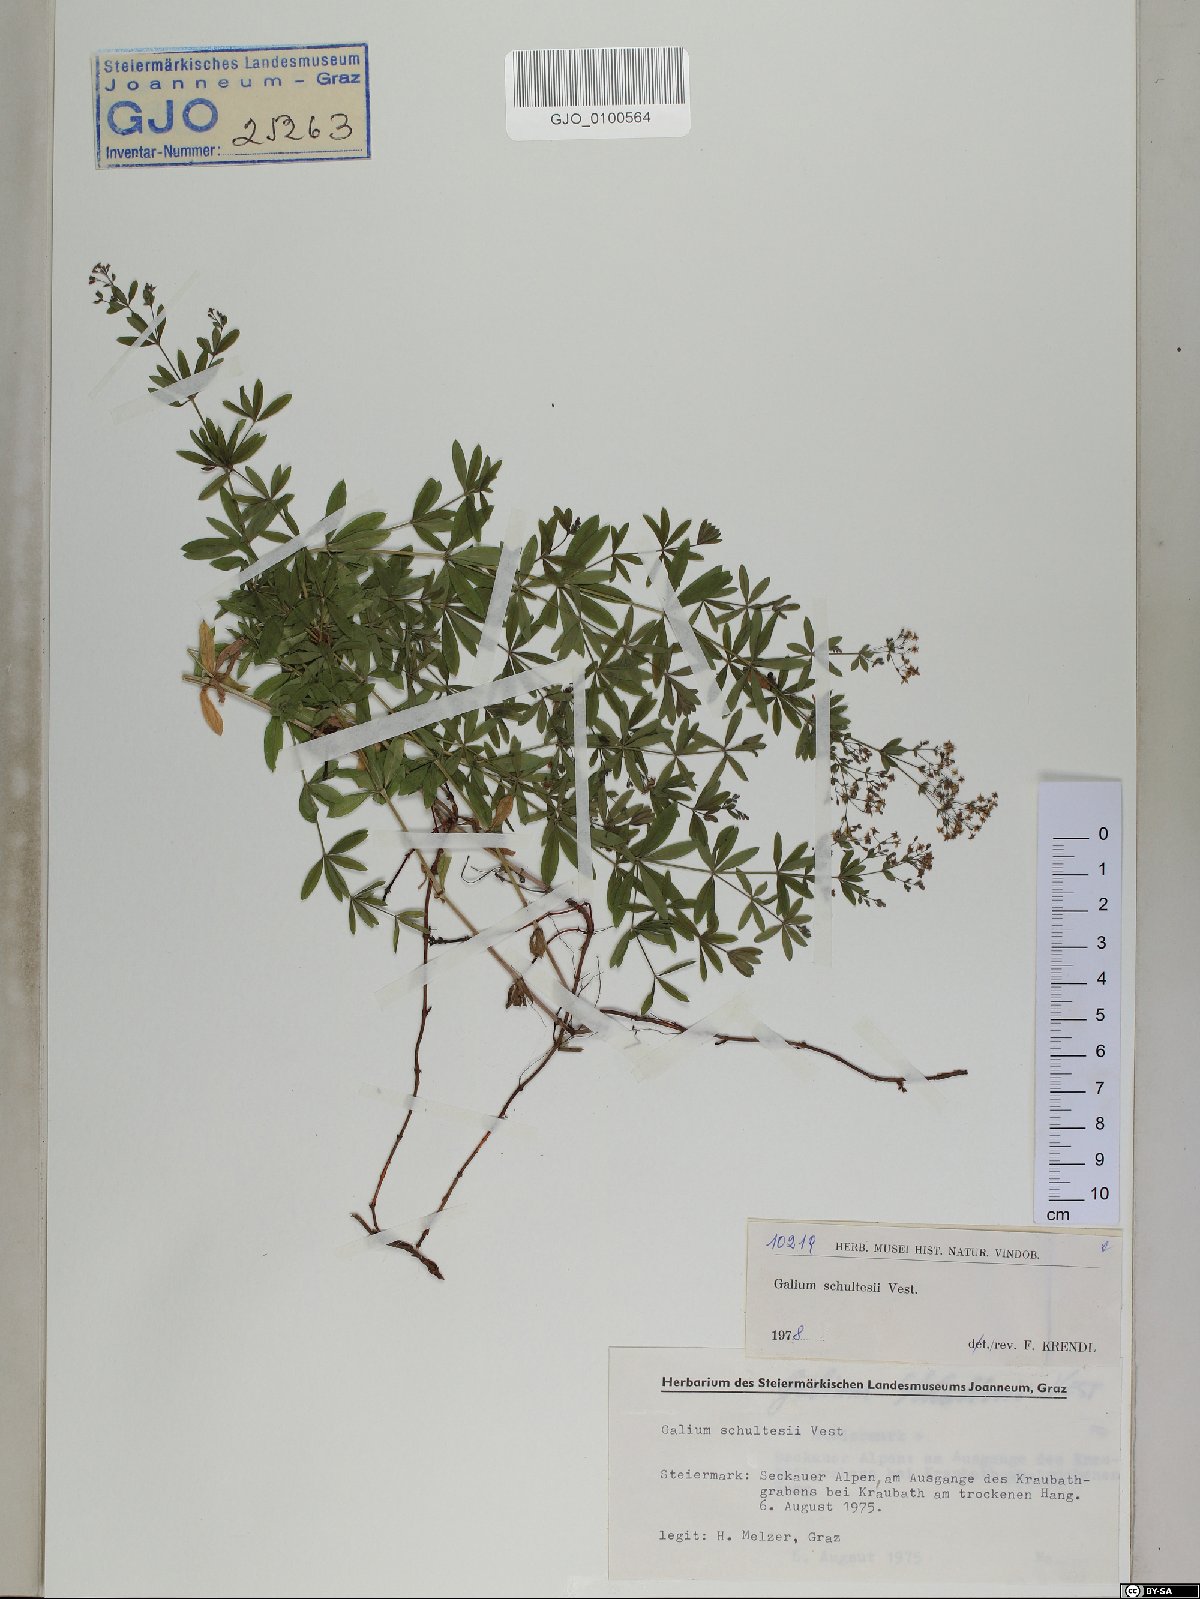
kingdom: Plantae
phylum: Tracheophyta
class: Magnoliopsida
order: Gentianales
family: Rubiaceae
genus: Galium
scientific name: Galium intermedium
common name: Bedstraw
